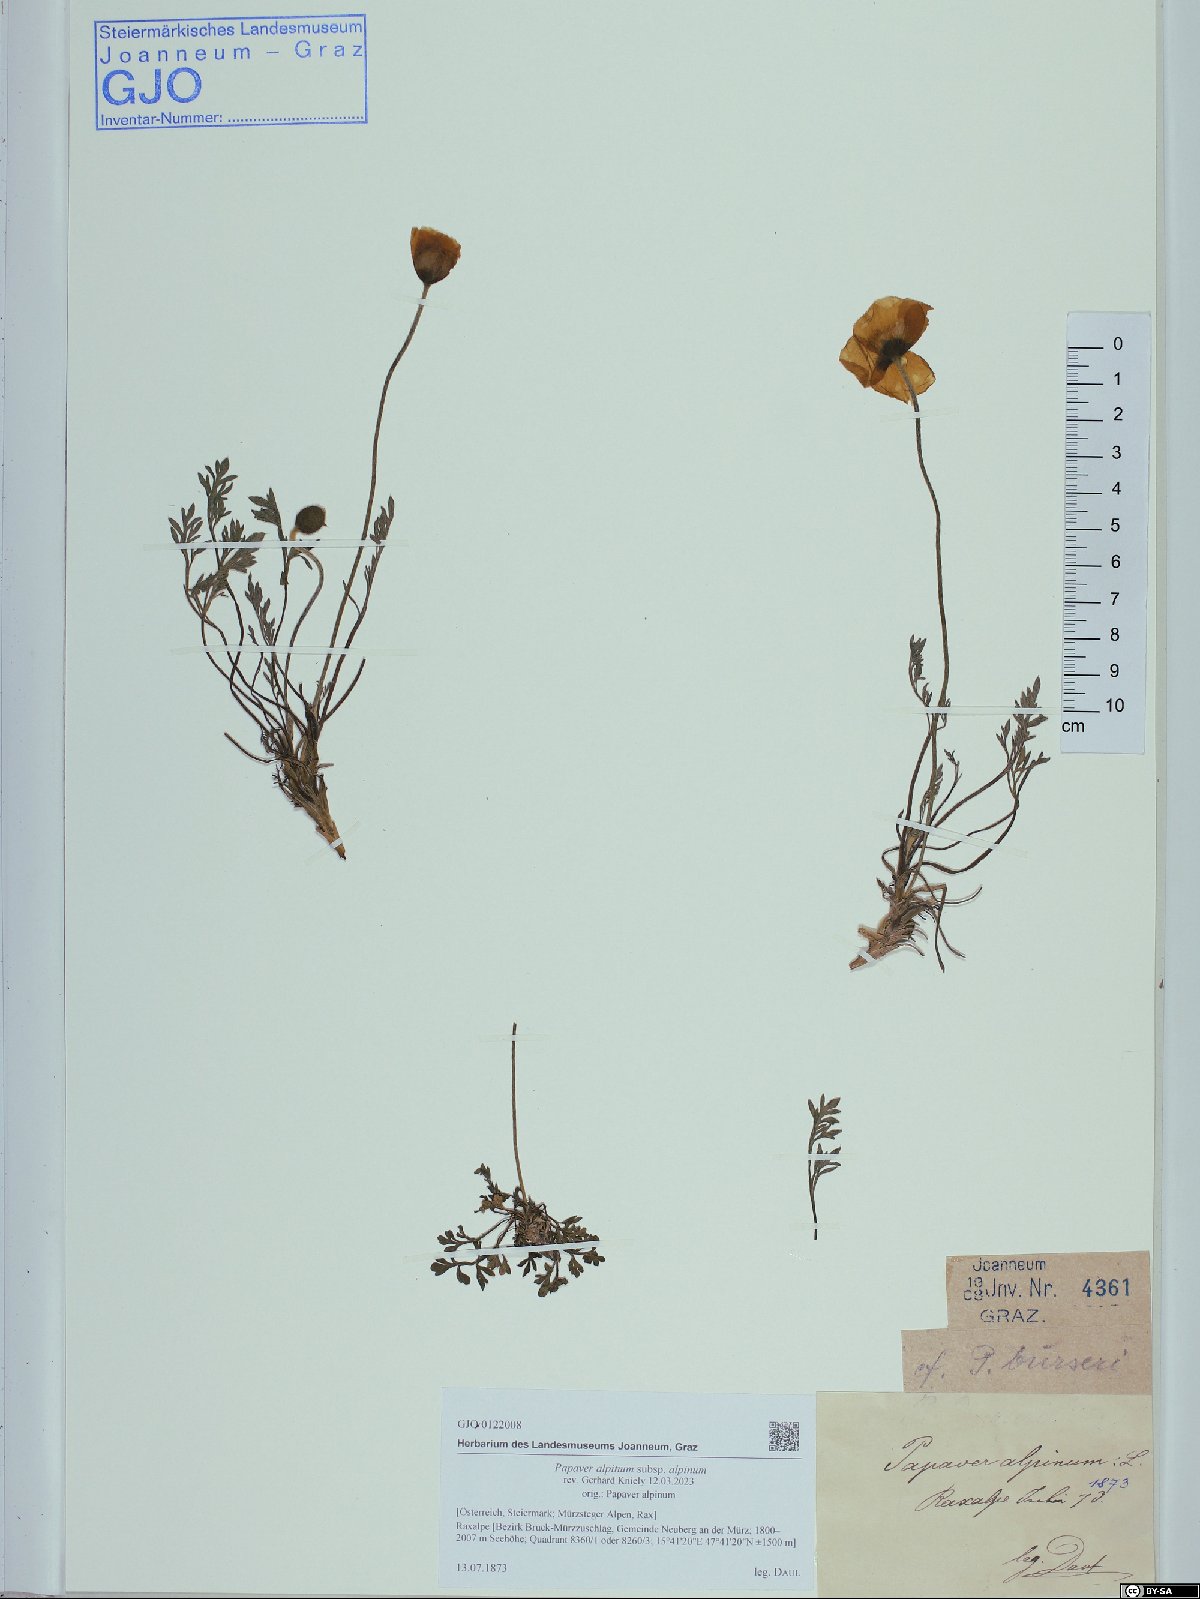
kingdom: Plantae
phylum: Tracheophyta
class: Magnoliopsida
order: Ranunculales
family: Papaveraceae
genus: Papaver
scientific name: Papaver alpinum
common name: Austrian poppy
